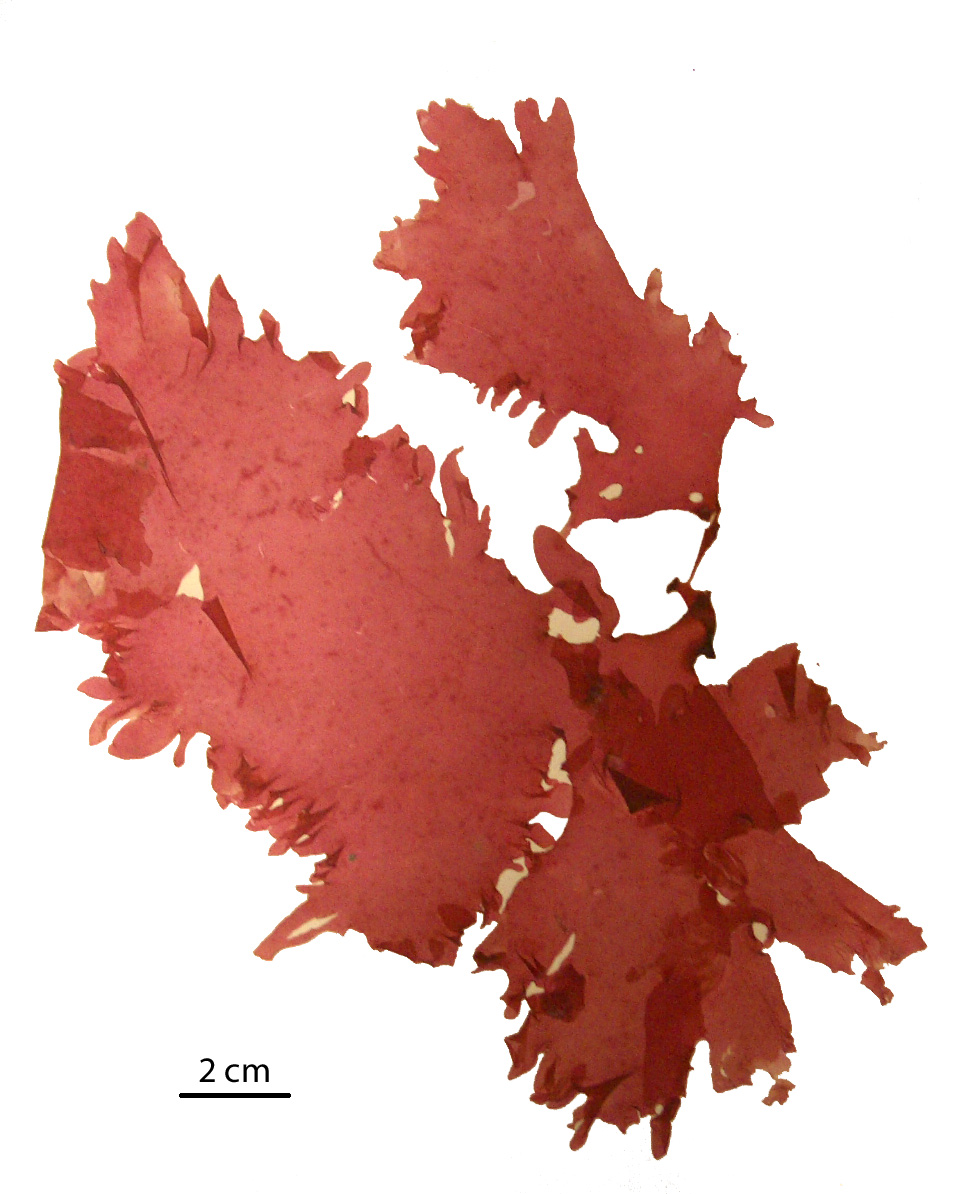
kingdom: Plantae
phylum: Rhodophyta
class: Florideophyceae
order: Gigartinales
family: Kallymeniaceae
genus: Psaromenia
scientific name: Psaromenia berggrenii
